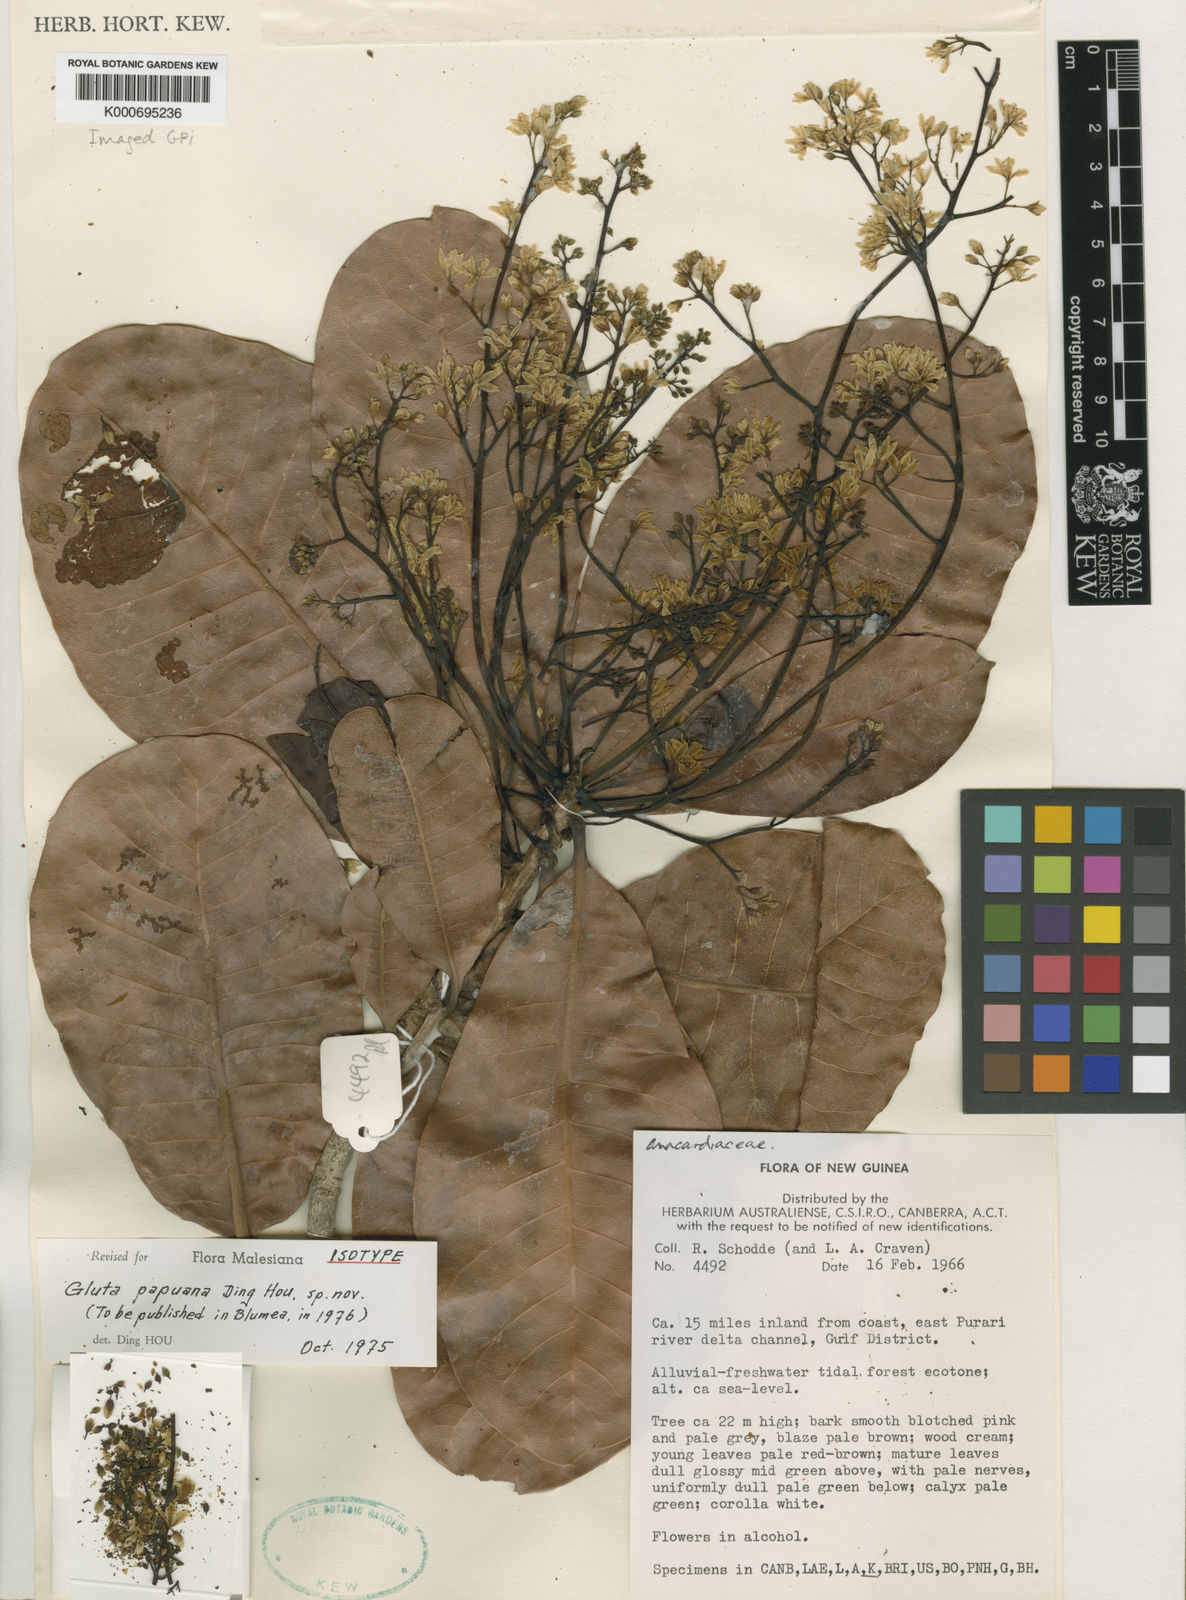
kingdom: Plantae
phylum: Tracheophyta
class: Magnoliopsida
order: Sapindales
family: Anacardiaceae
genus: Gluta
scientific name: Gluta papuana
